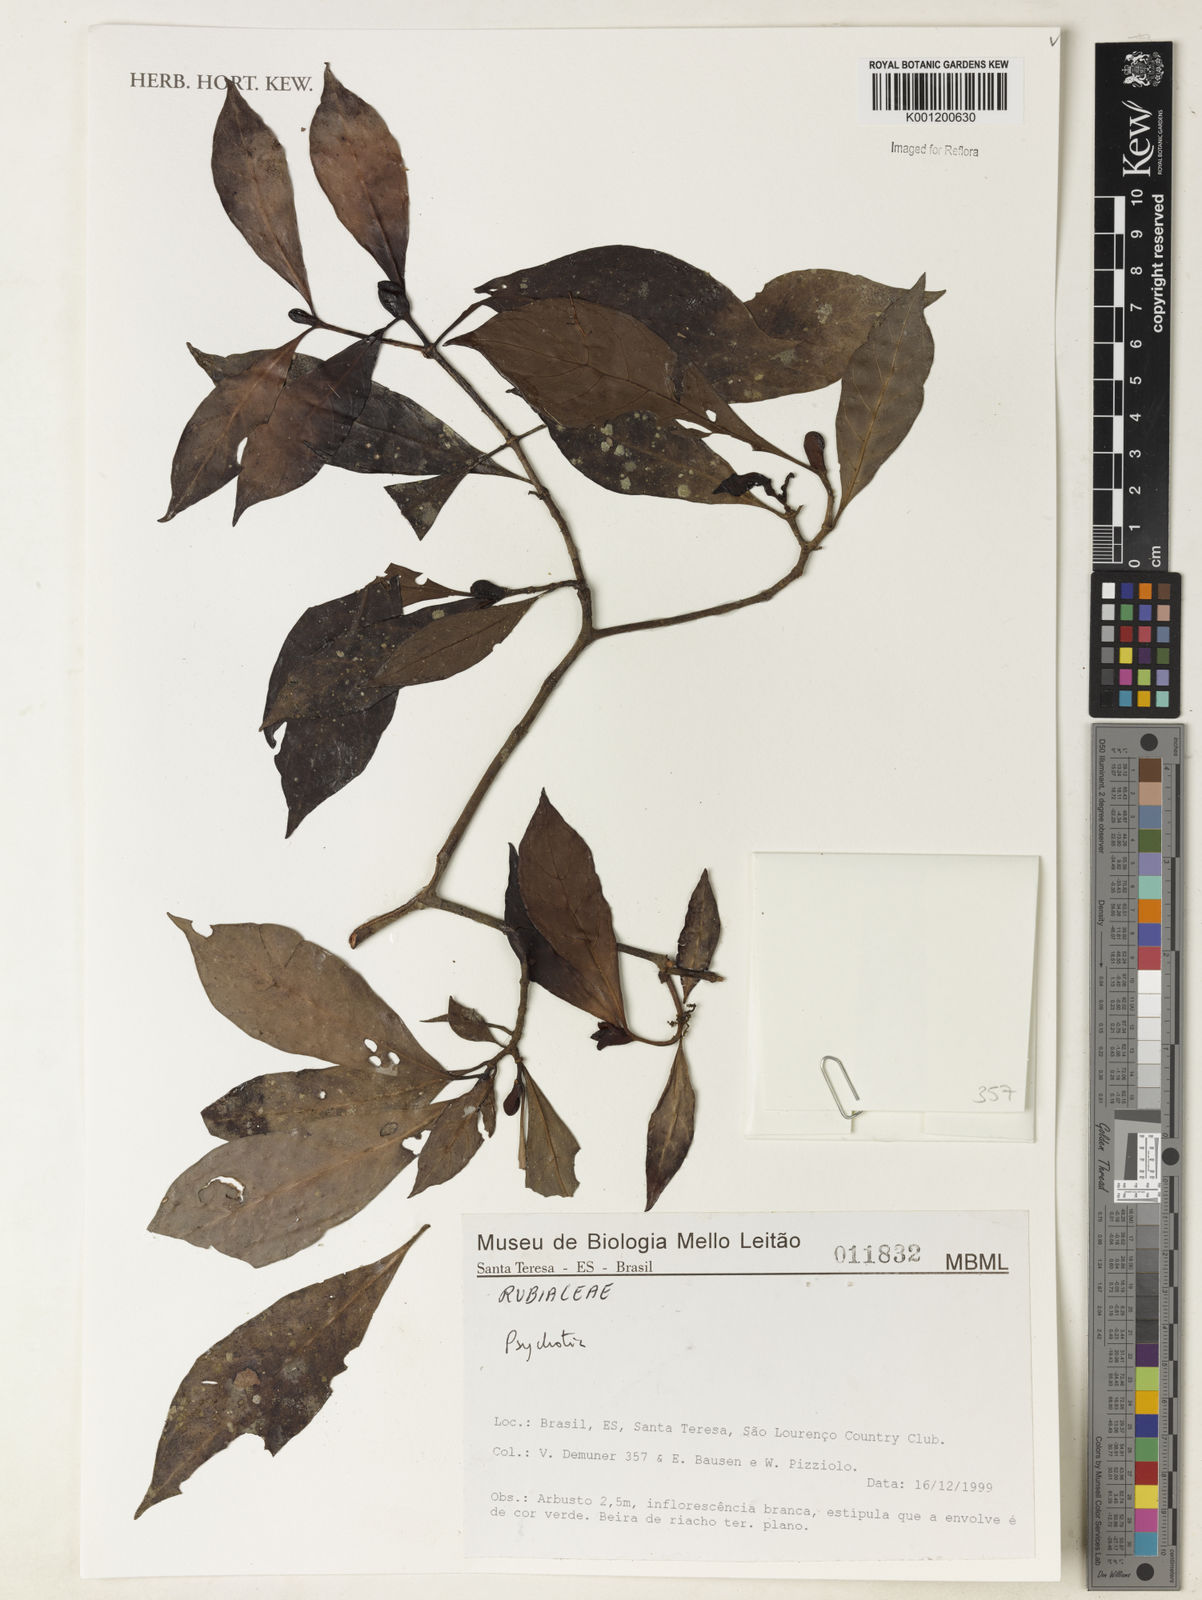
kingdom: Plantae
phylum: Tracheophyta
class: Magnoliopsida
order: Gentianales
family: Rubiaceae
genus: Psychotria
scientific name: Psychotria
